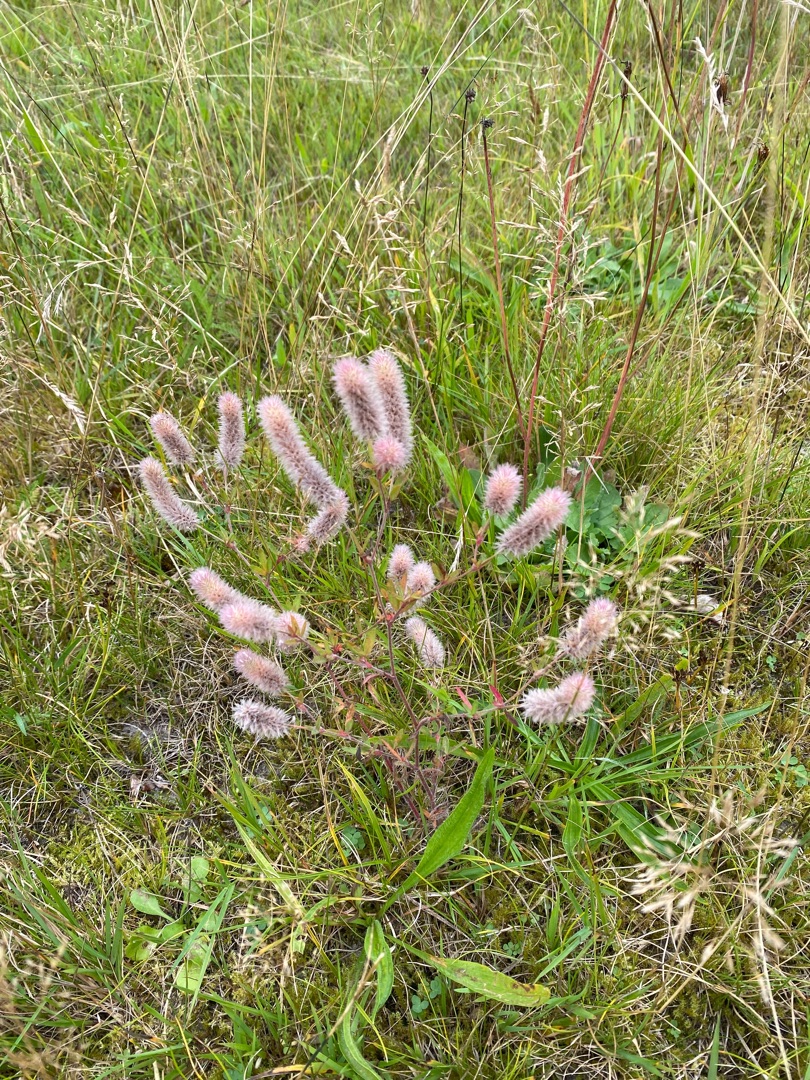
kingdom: Plantae
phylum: Tracheophyta
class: Magnoliopsida
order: Fabales
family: Fabaceae
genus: Trifolium
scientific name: Trifolium arvense
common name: Hare-kløver
